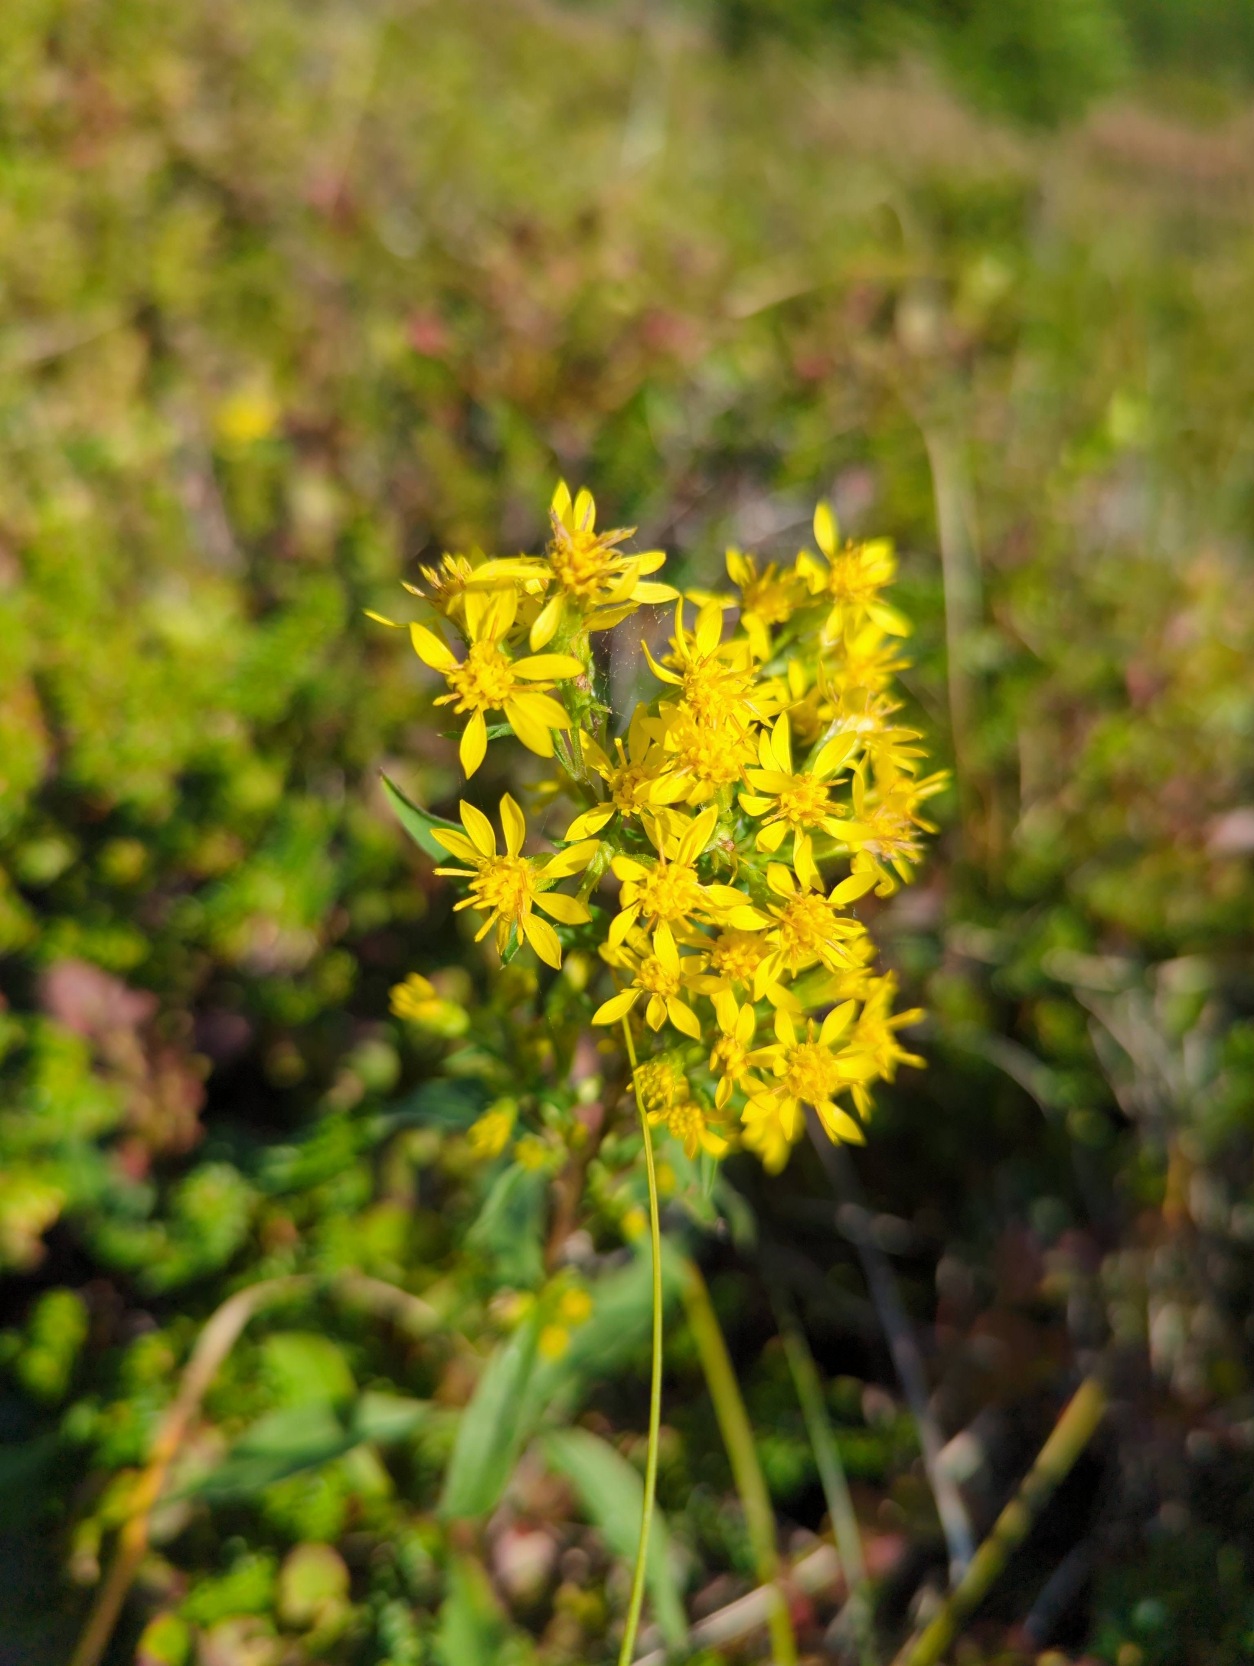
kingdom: Plantae
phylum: Tracheophyta
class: Magnoliopsida
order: Asterales
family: Asteraceae
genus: Solidago
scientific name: Solidago virgaurea
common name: Almindelig gyldenris
